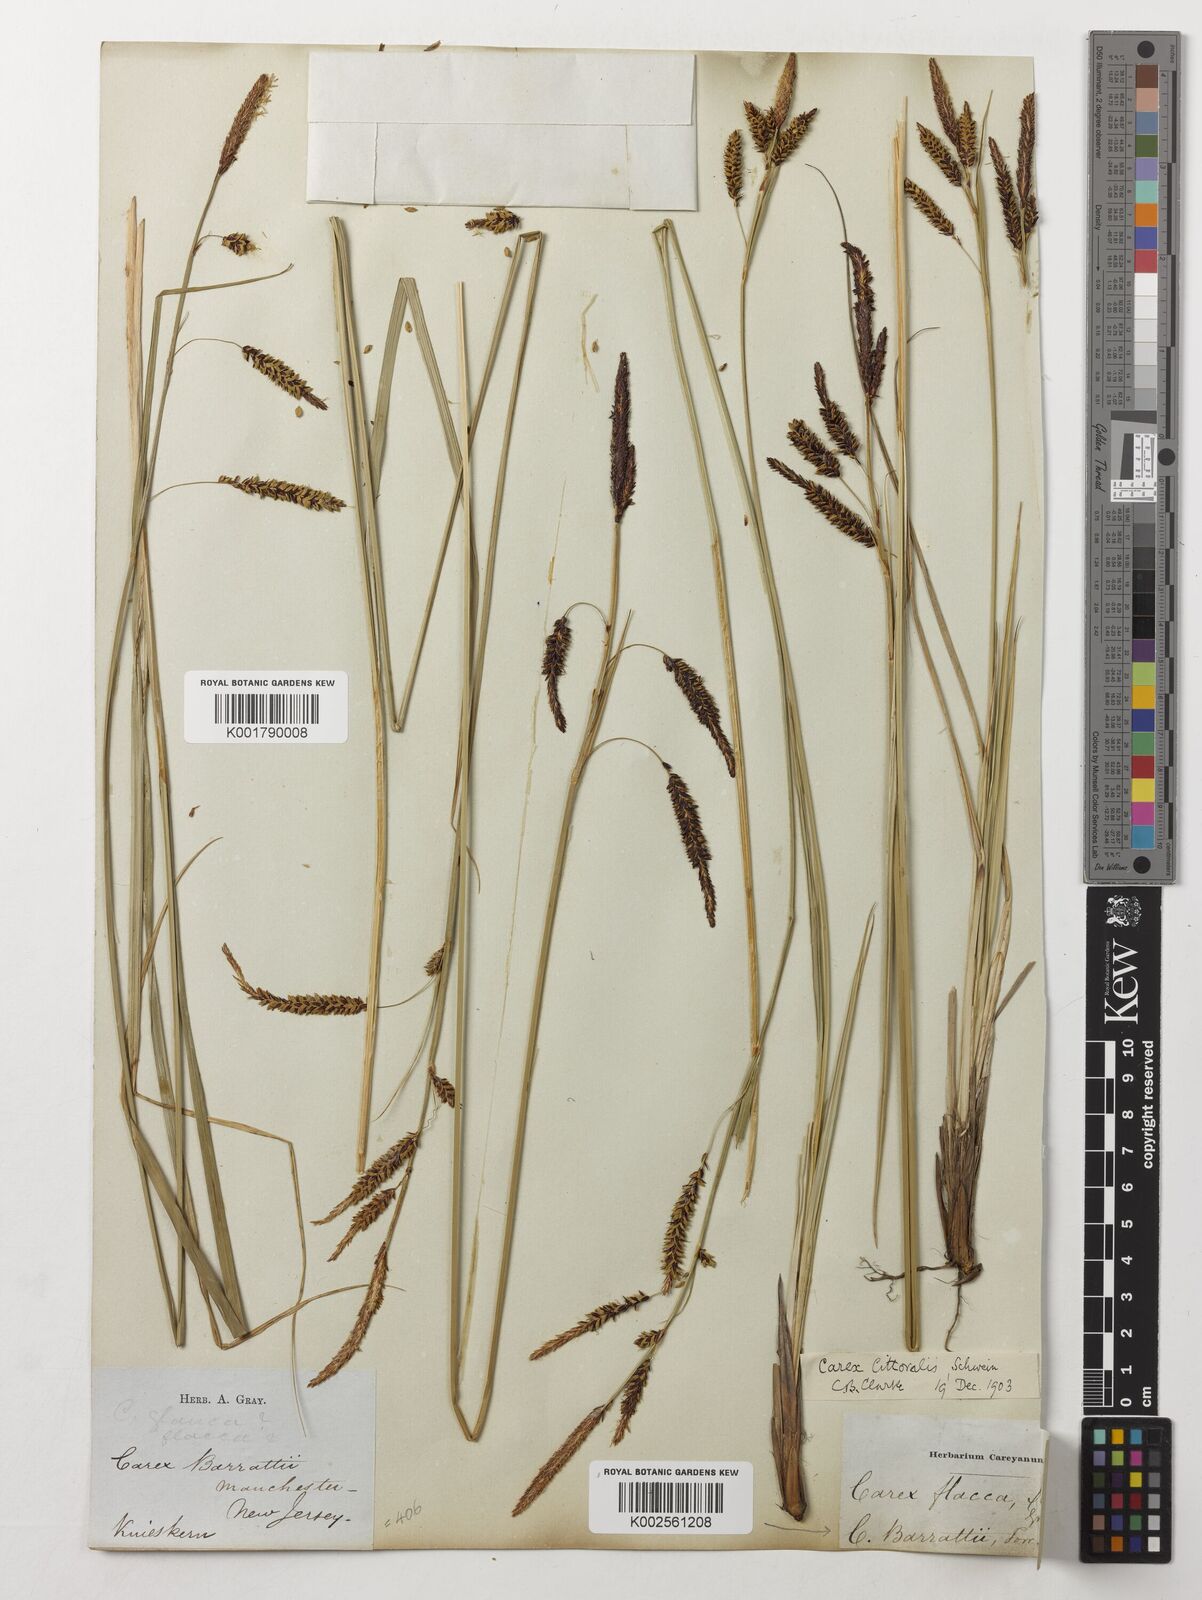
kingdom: Plantae
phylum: Tracheophyta
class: Liliopsida
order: Poales
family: Cyperaceae
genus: Carex
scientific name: Carex barrattii
